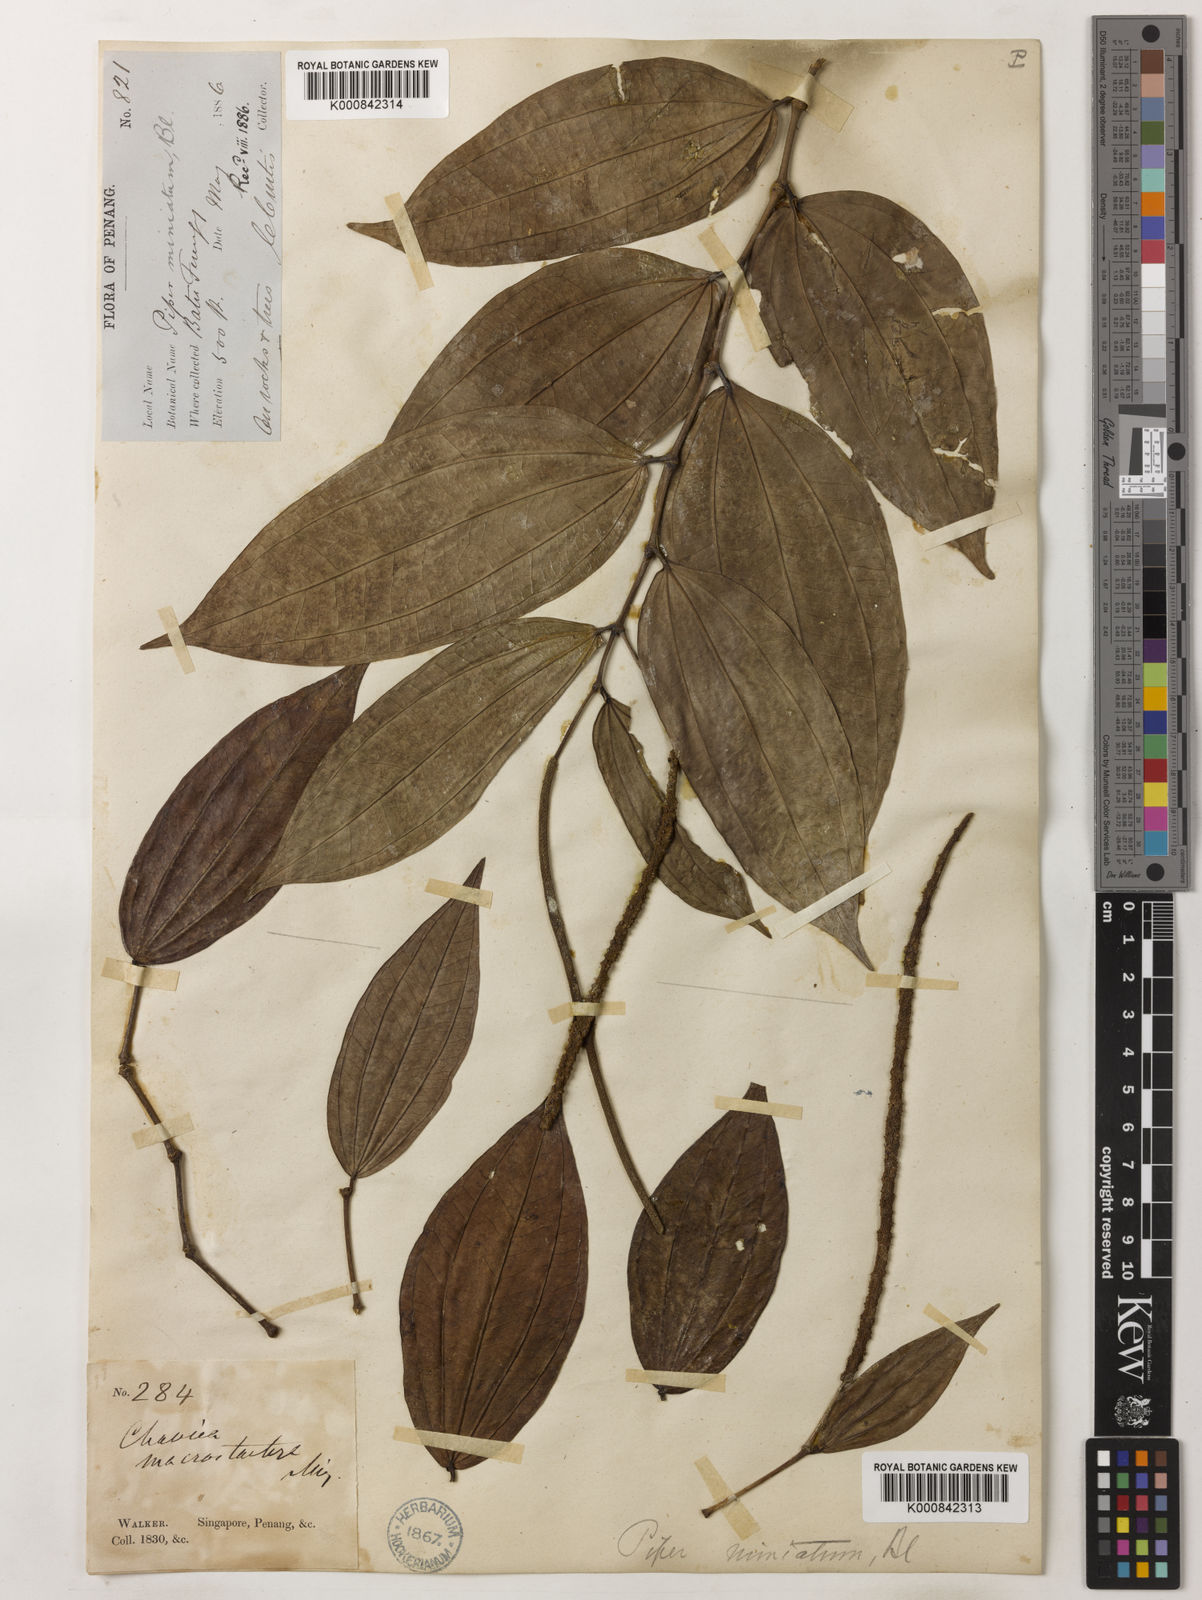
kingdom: Plantae
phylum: Tracheophyta
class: Magnoliopsida
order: Piperales
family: Piperaceae
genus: Piper
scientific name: Piper macropiper
